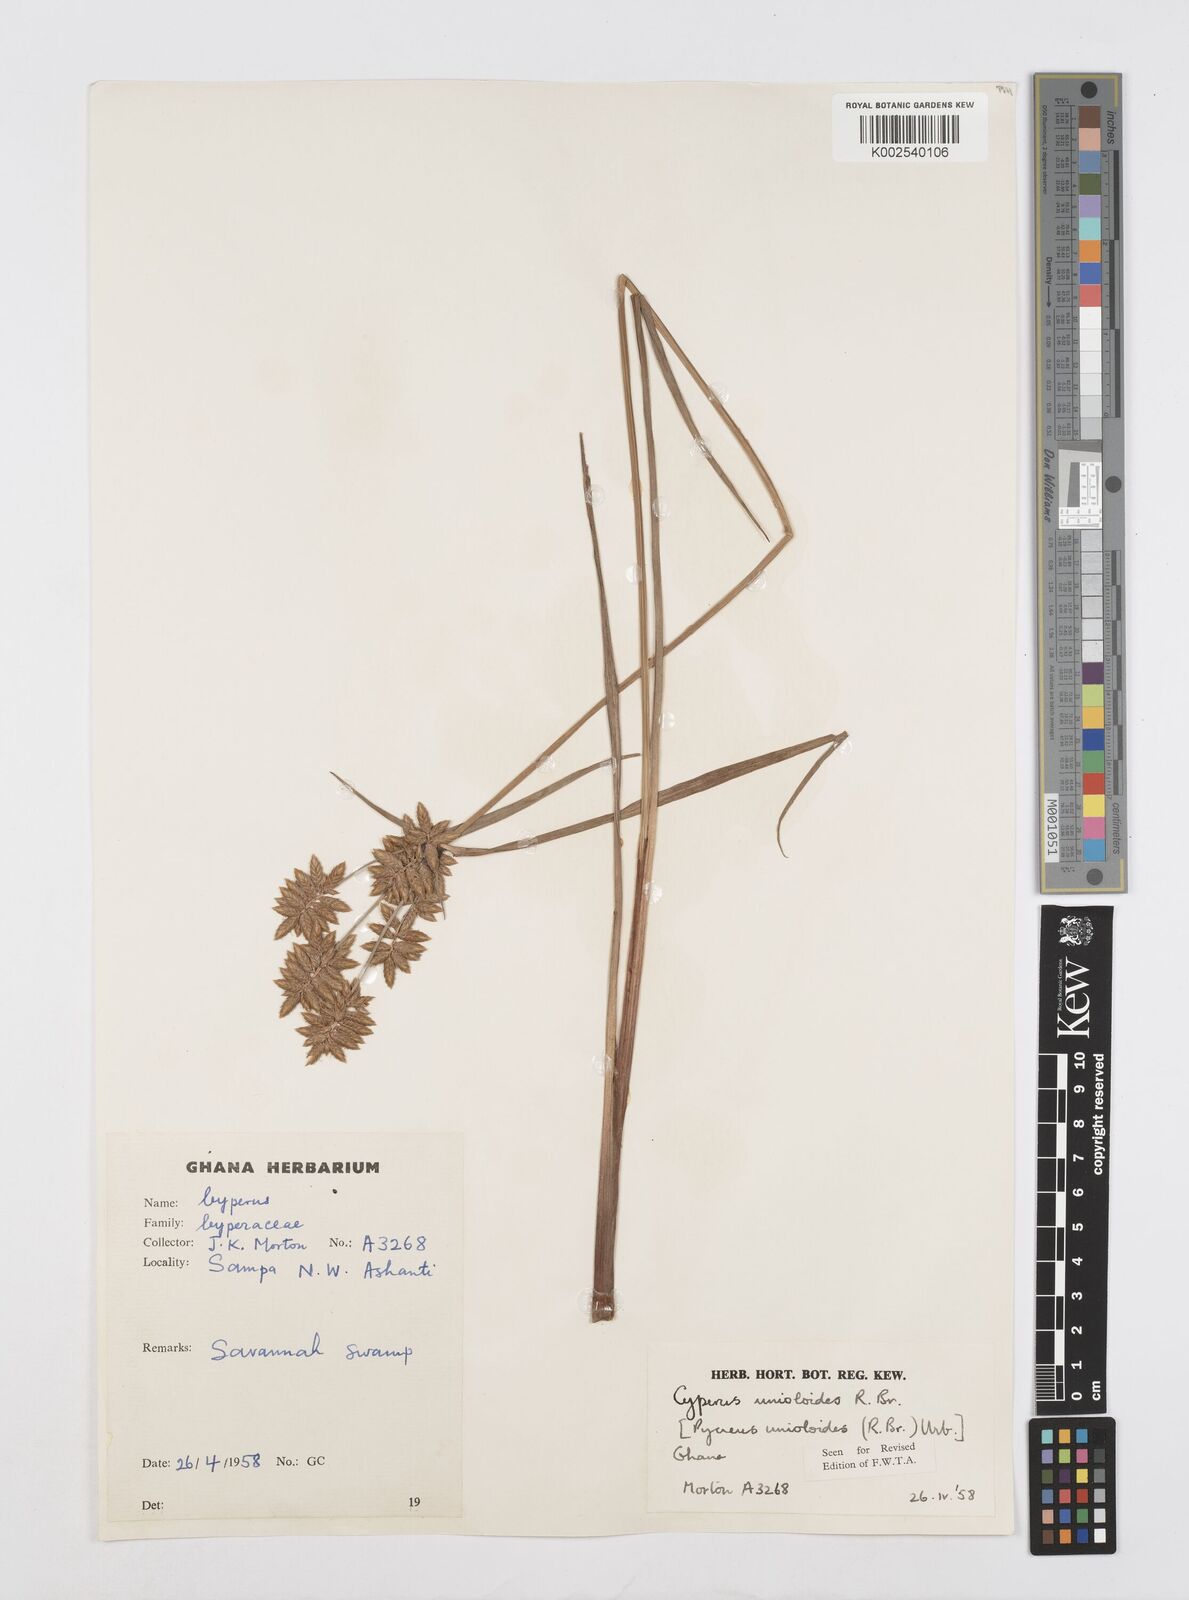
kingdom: Plantae
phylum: Tracheophyta
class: Liliopsida
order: Poales
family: Cyperaceae
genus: Cyperus
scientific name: Cyperus unioloides
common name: Uniola flatsedge
